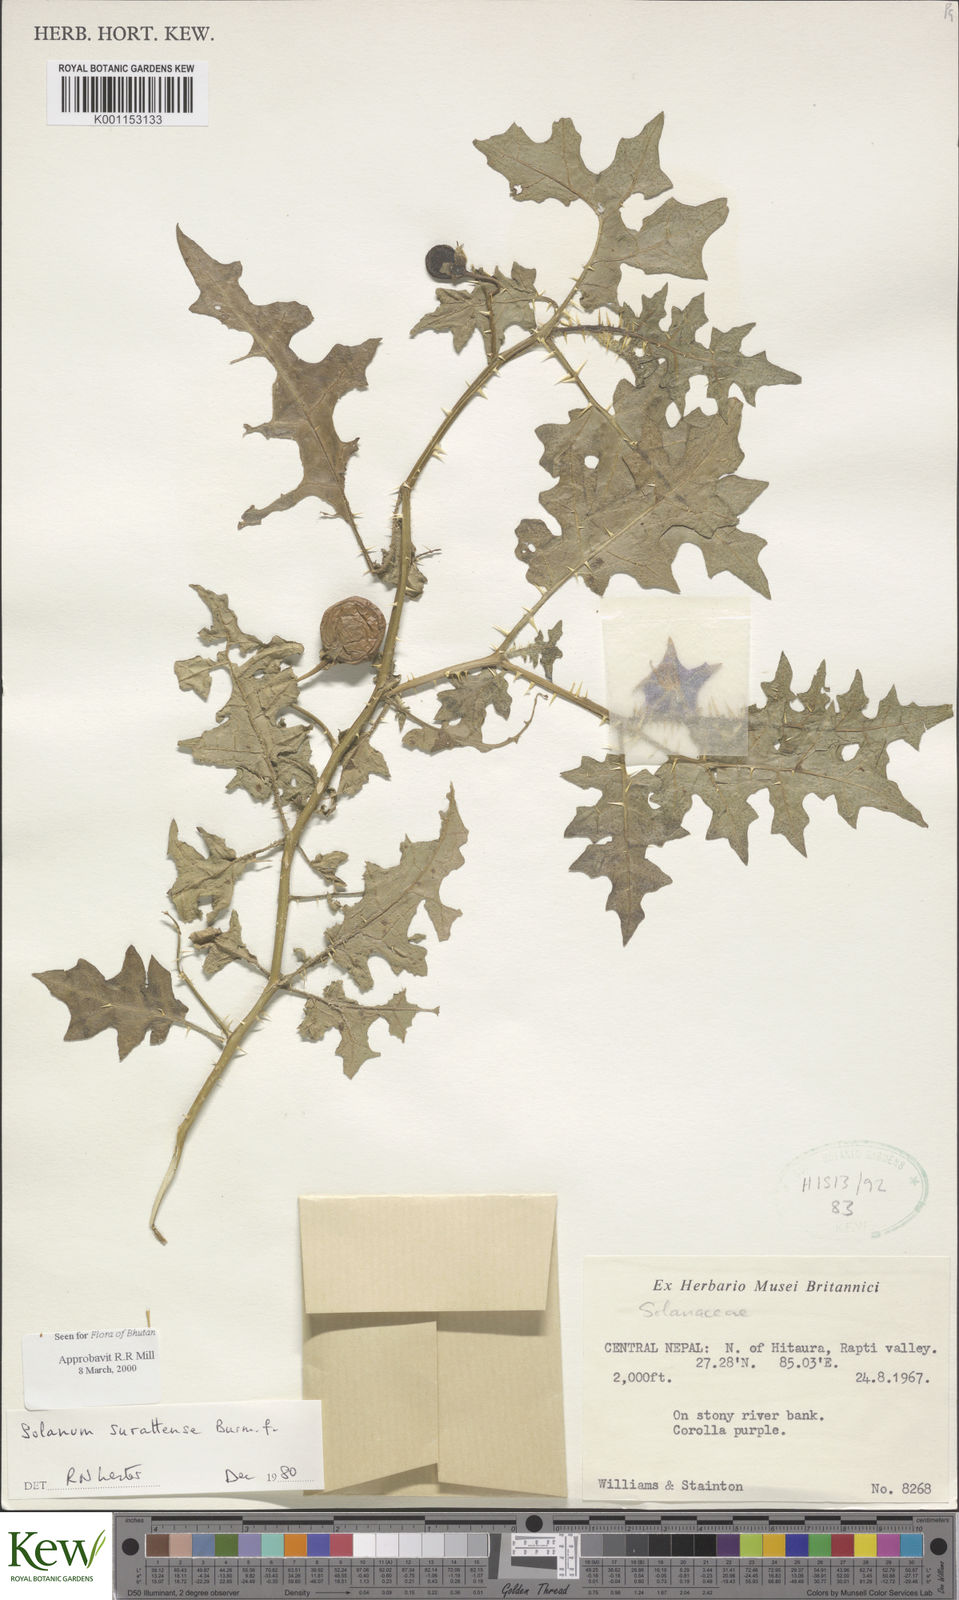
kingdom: Plantae
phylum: Tracheophyta
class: Magnoliopsida
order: Solanales
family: Solanaceae
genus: Solanum
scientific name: Solanum virginianum
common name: Surattense nightshade
